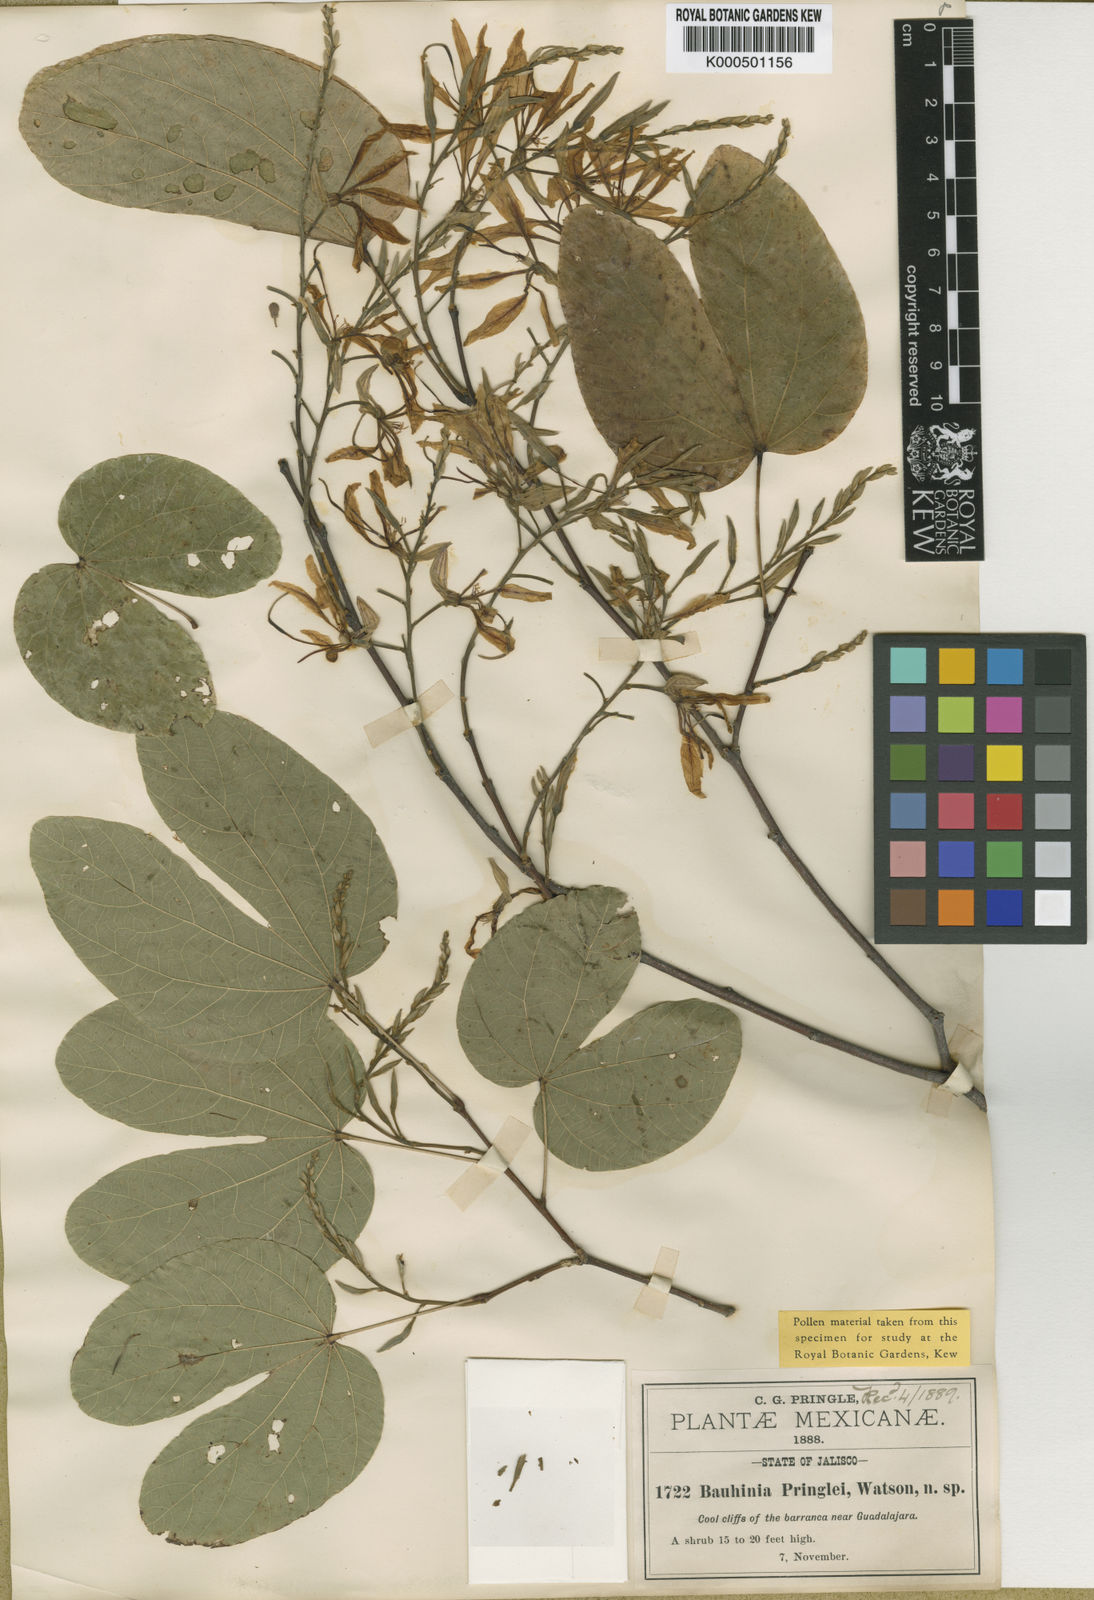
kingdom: Plantae
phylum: Tracheophyta
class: Magnoliopsida
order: Fabales
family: Fabaceae
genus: Bauhinia
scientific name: Bauhinia pringlei
